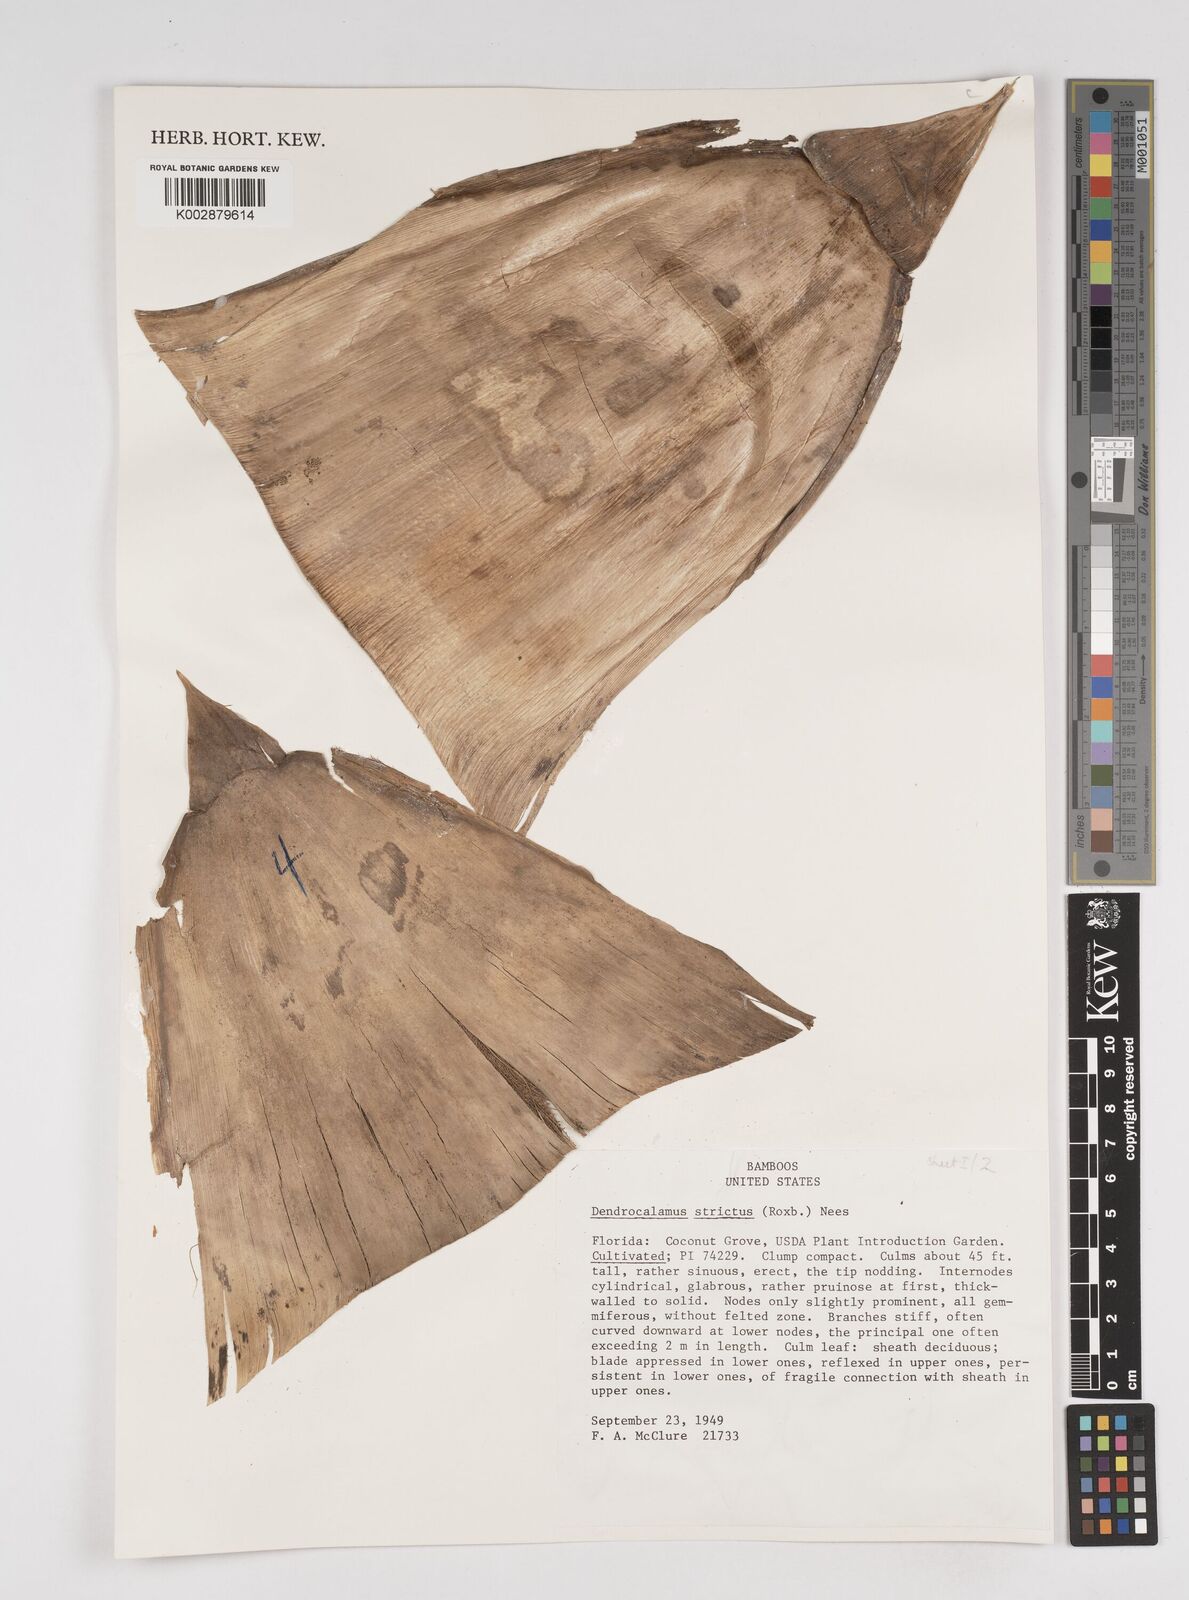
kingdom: Plantae
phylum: Tracheophyta
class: Liliopsida
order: Poales
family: Poaceae
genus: Dendrocalamus
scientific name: Dendrocalamus strictus
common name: Male bamboo
